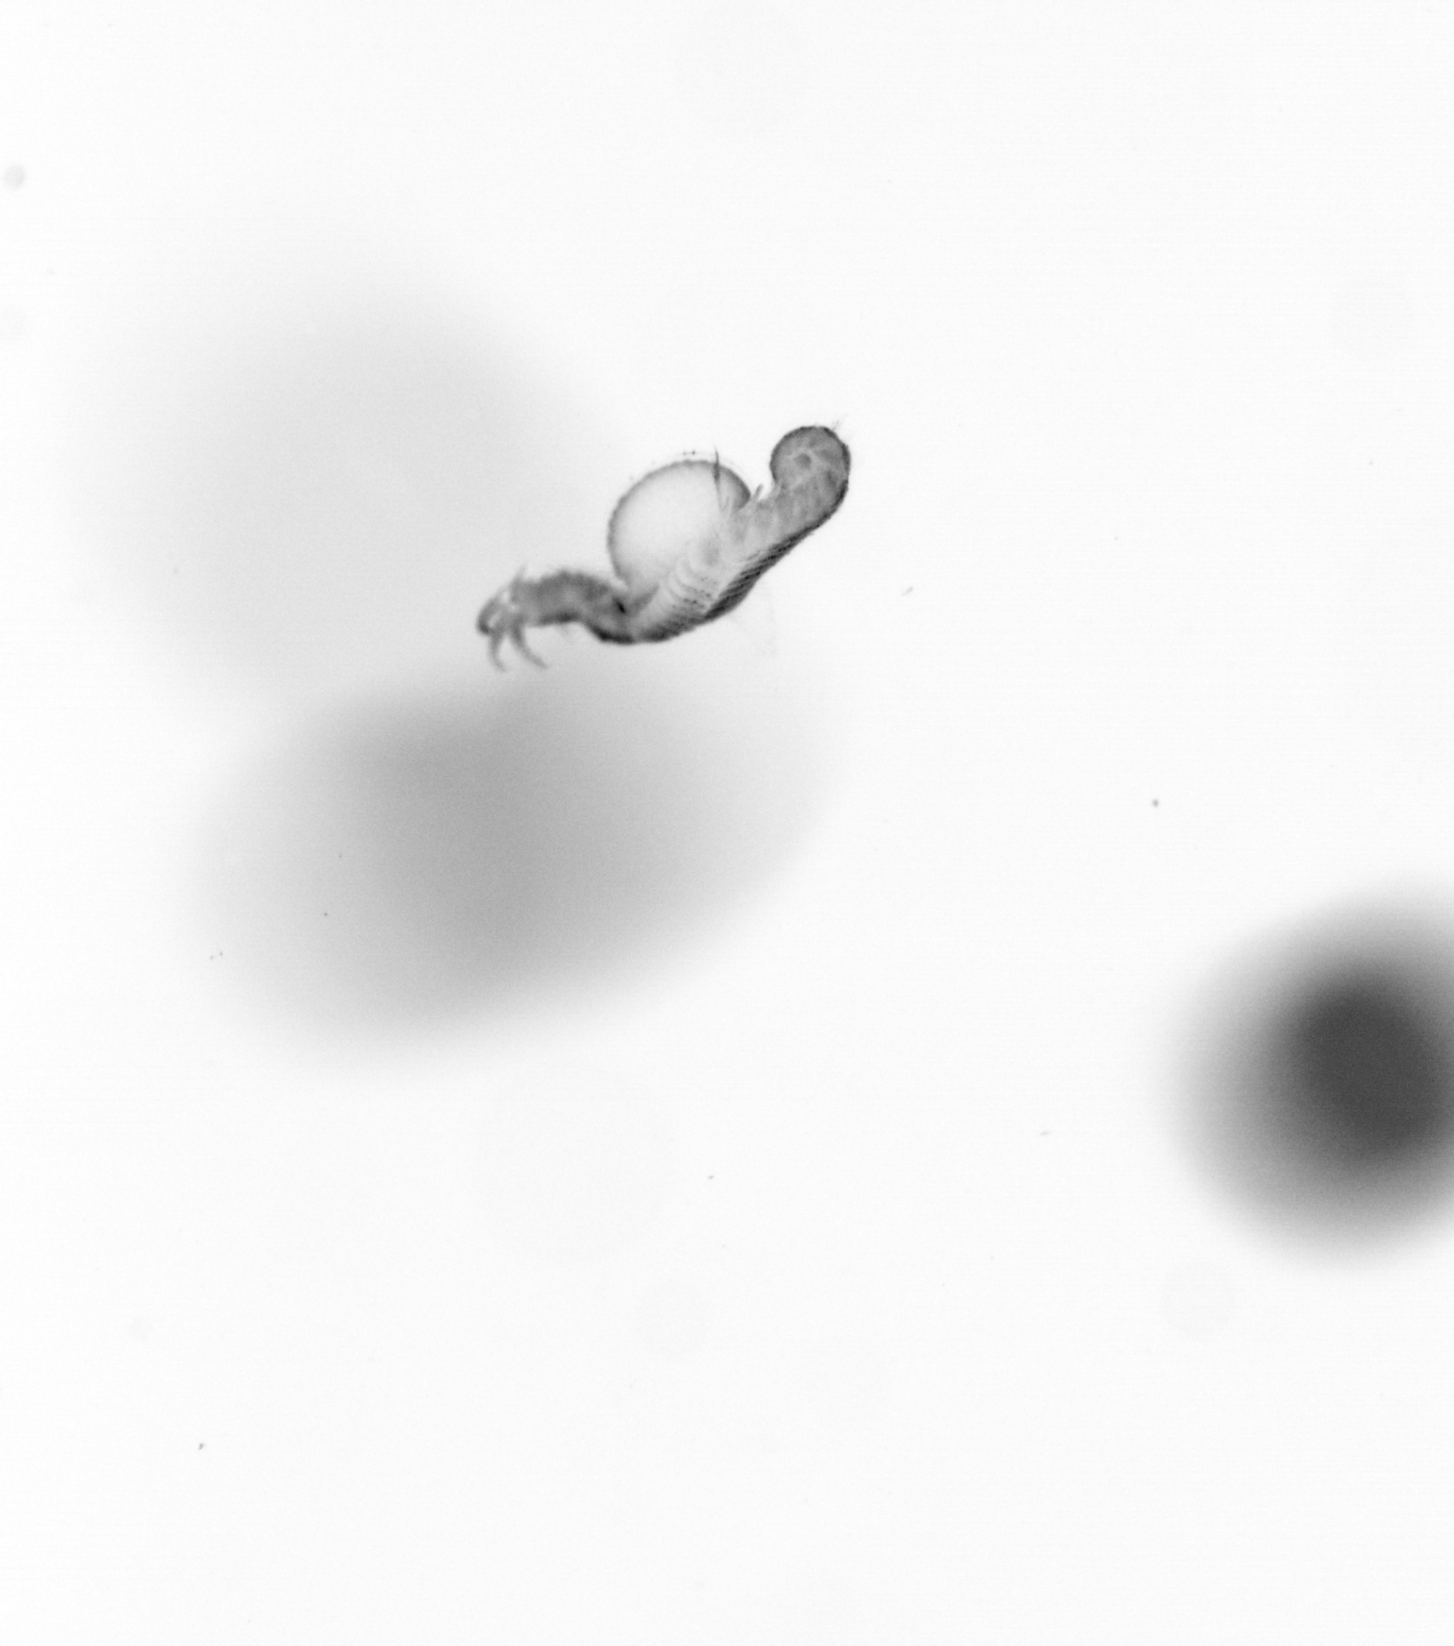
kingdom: Animalia
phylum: Annelida
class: Polychaeta
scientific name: Polychaeta
